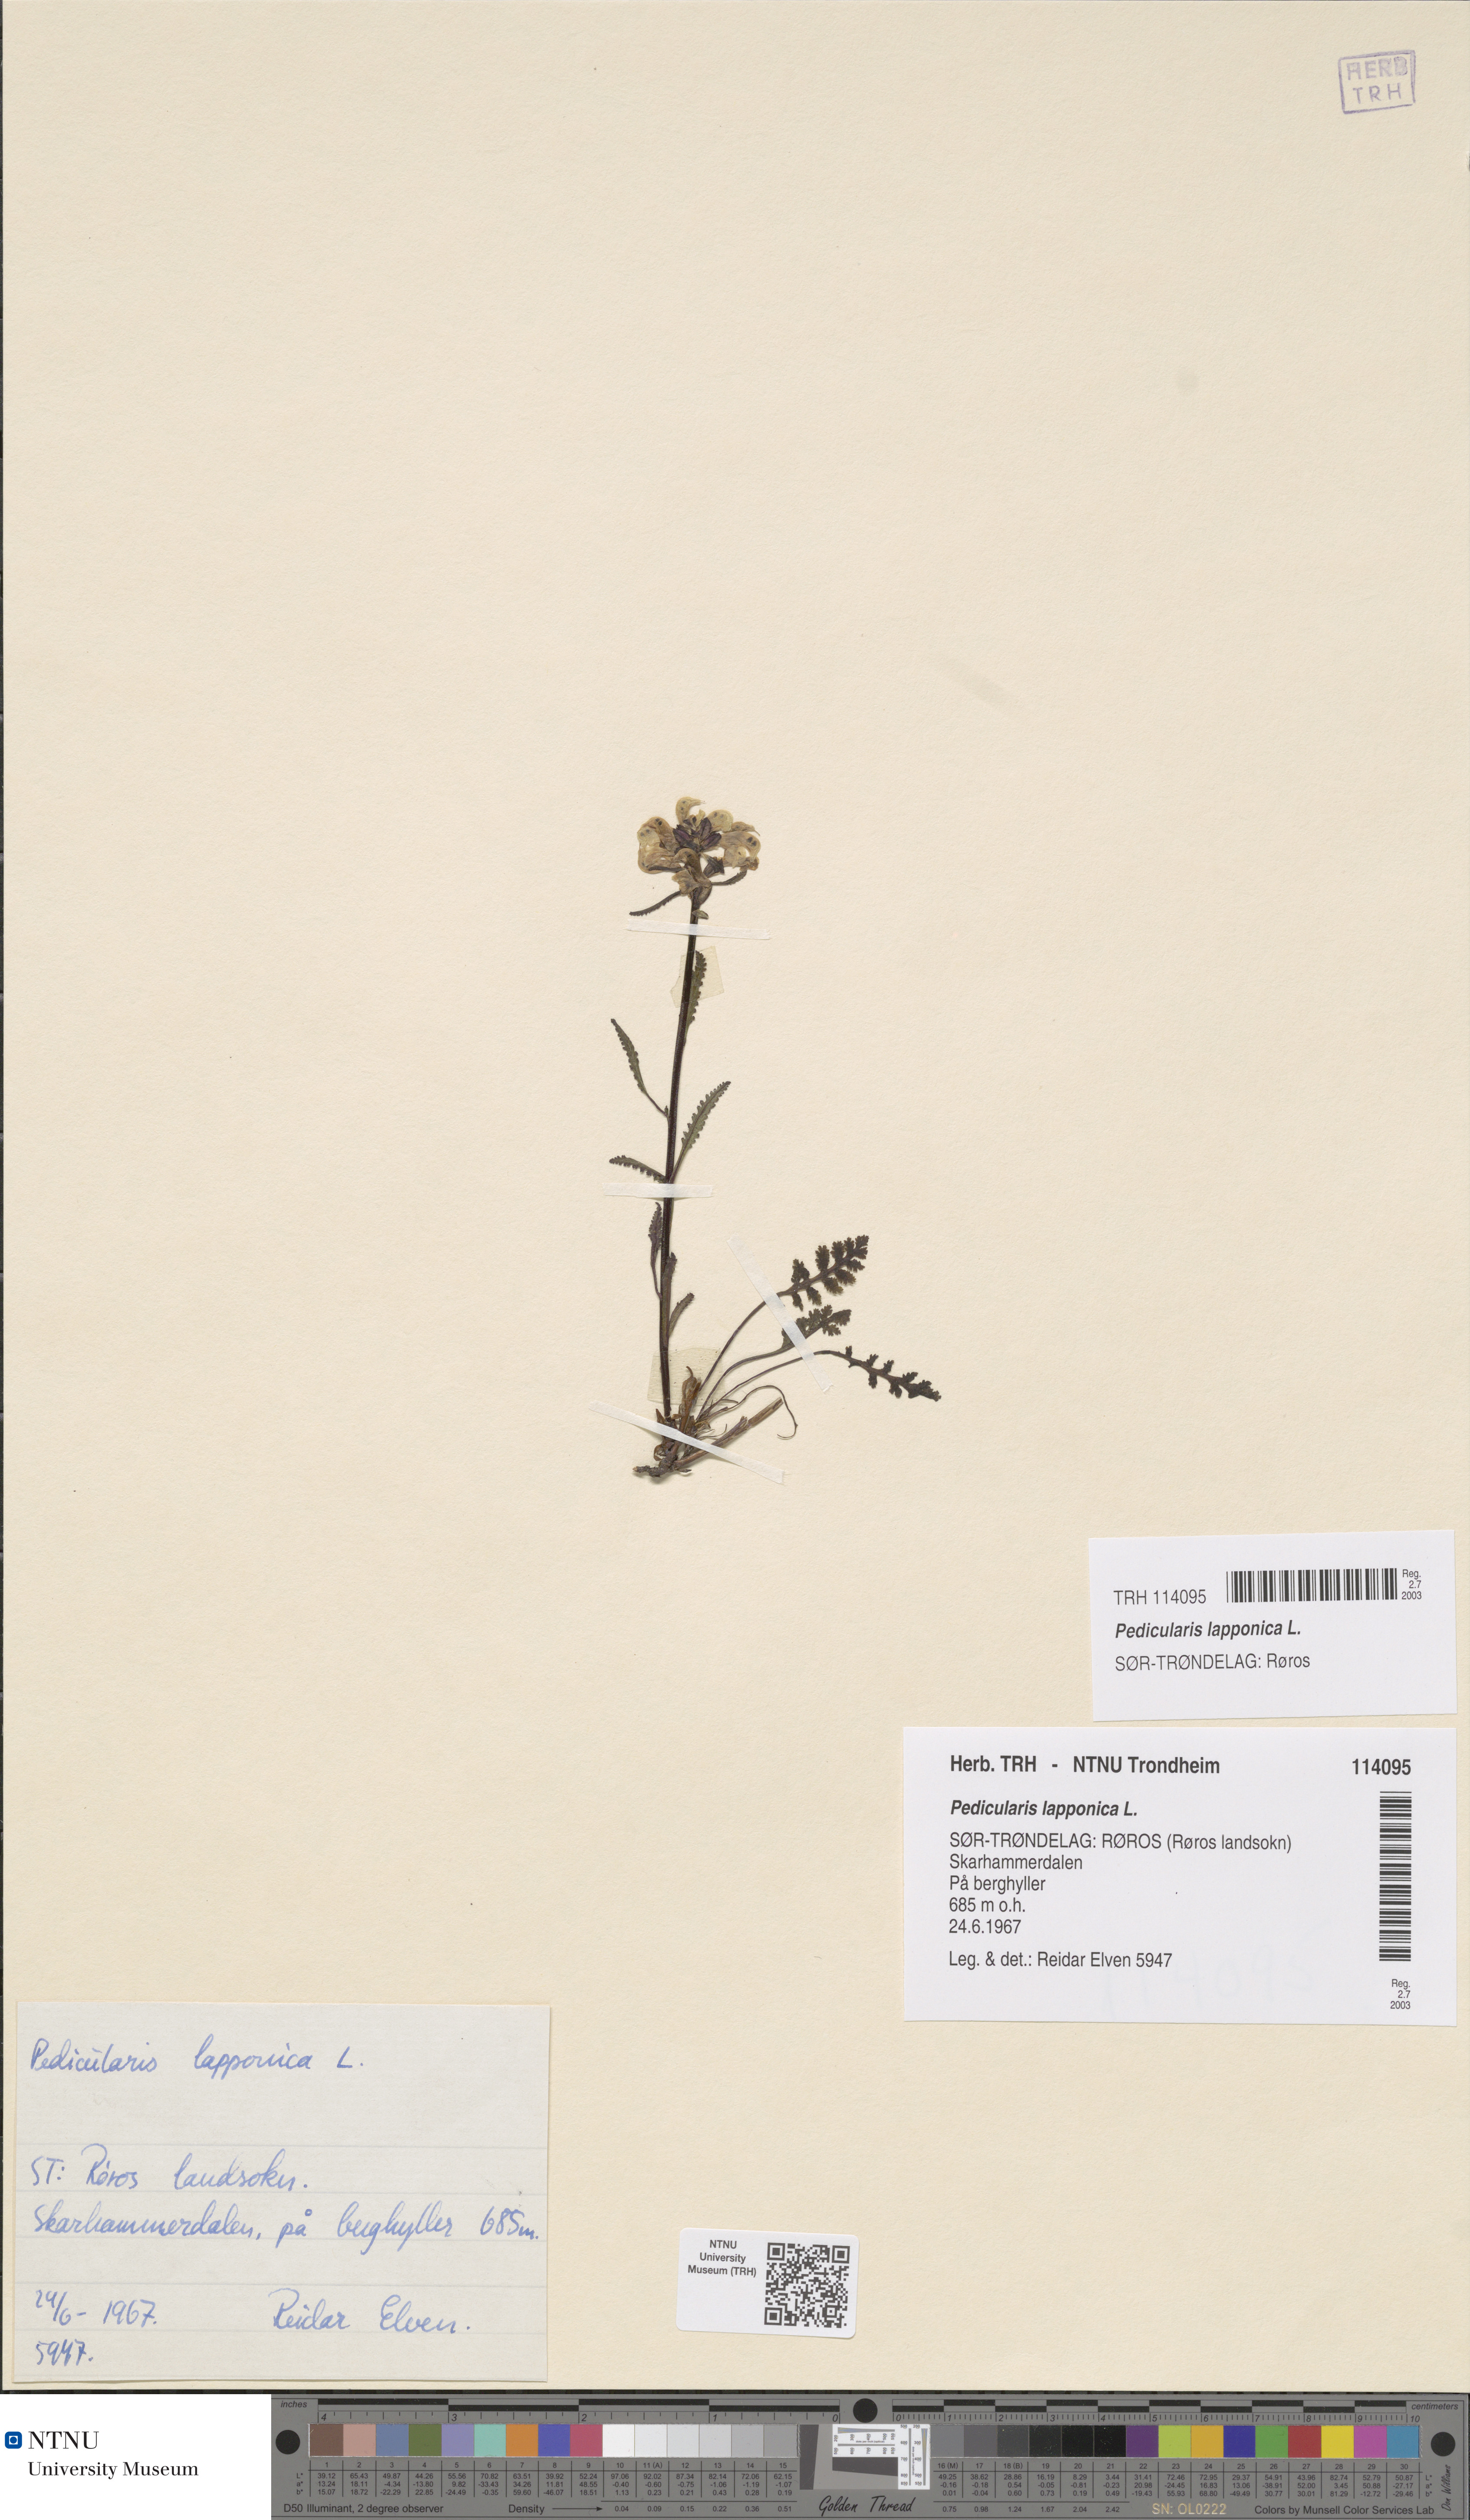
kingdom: Plantae
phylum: Tracheophyta
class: Magnoliopsida
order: Lamiales
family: Orobanchaceae
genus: Pedicularis
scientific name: Pedicularis lapponica
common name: Lapland lousewort
